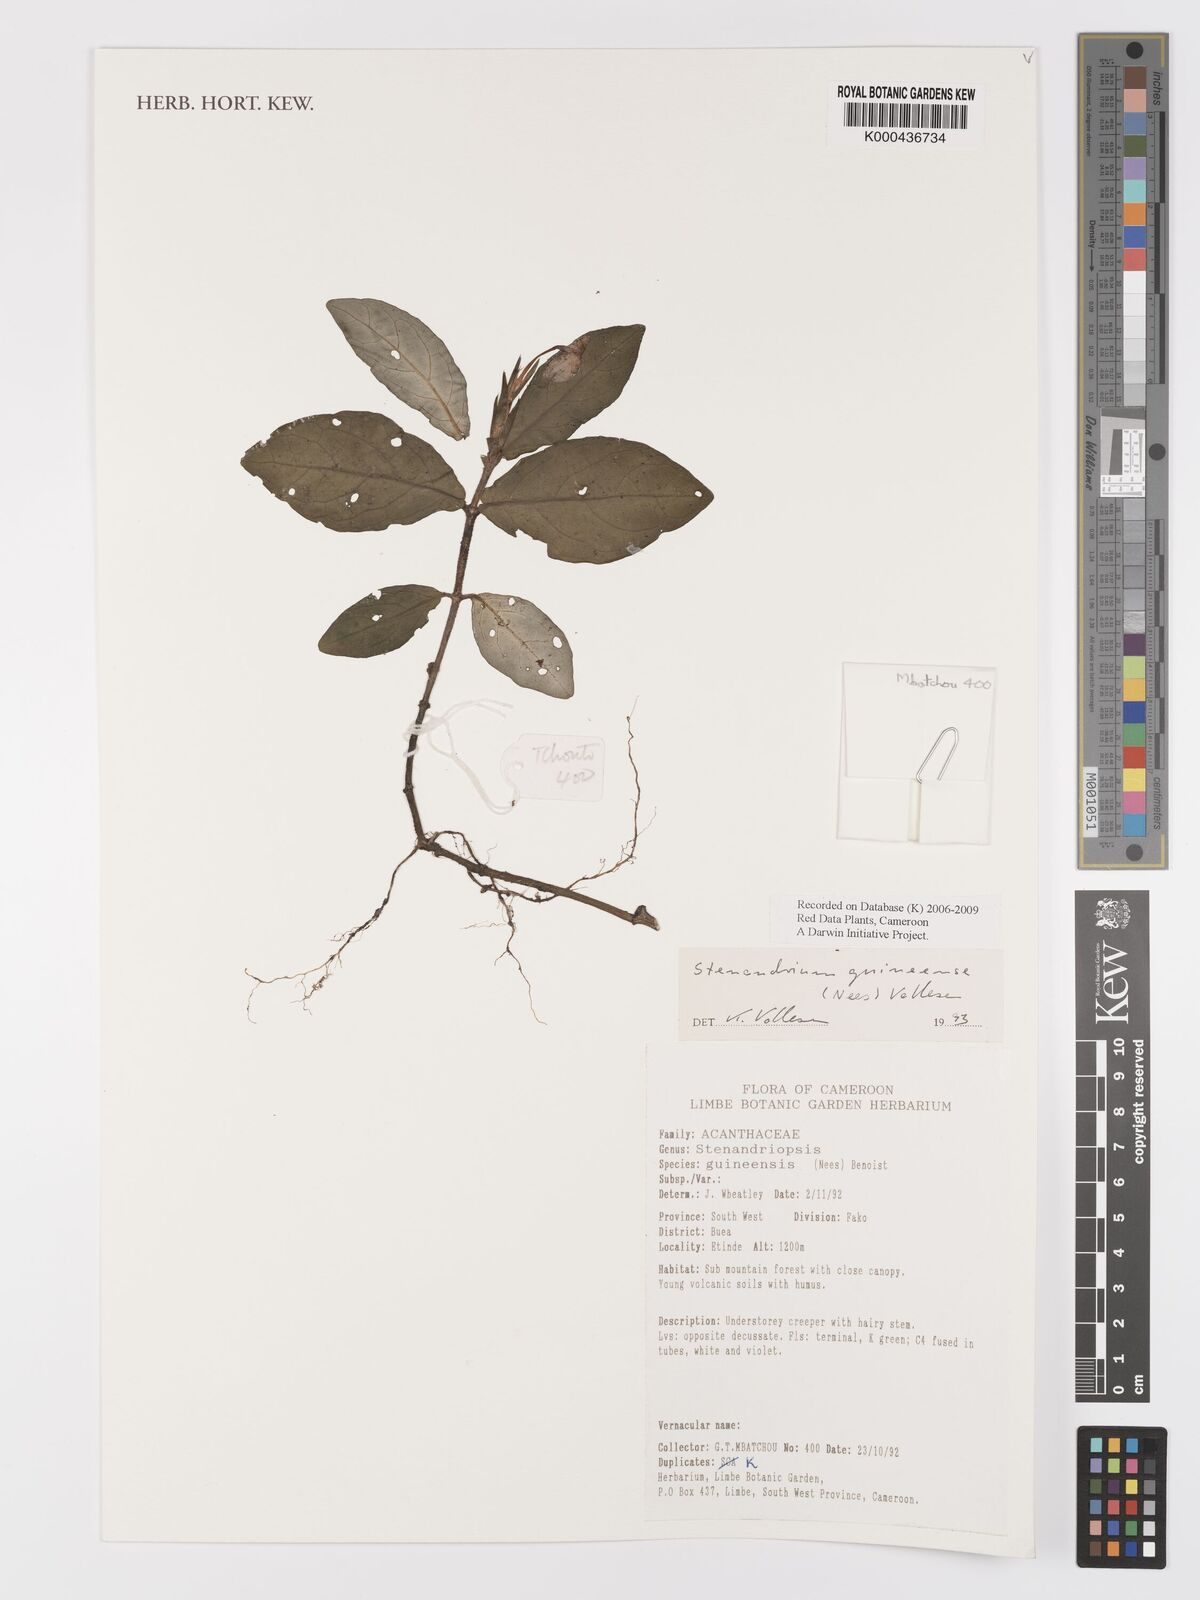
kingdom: Plantae
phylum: Tracheophyta
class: Magnoliopsida
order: Lamiales
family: Acanthaceae
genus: Stenandriopsis
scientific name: Stenandriopsis guineensis
